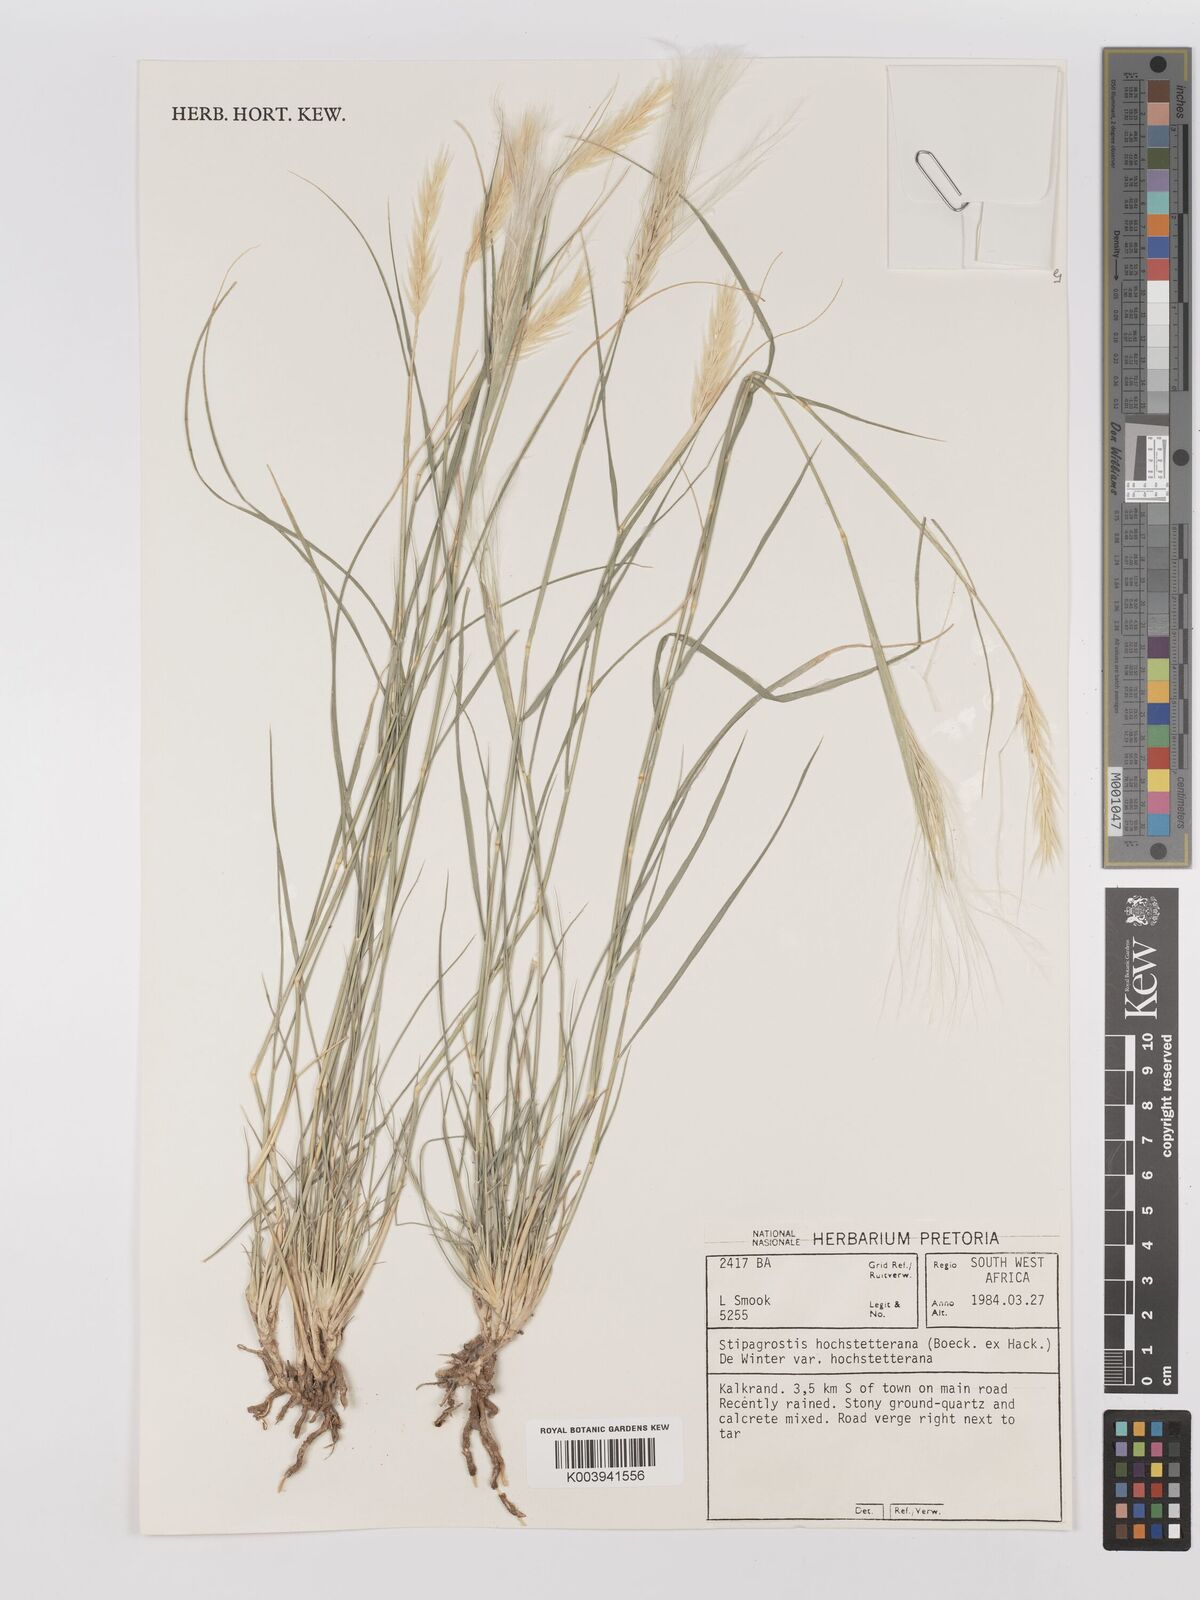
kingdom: Plantae
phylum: Tracheophyta
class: Liliopsida
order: Poales
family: Poaceae
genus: Stipagrostis
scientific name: Stipagrostis hochstetteriana
